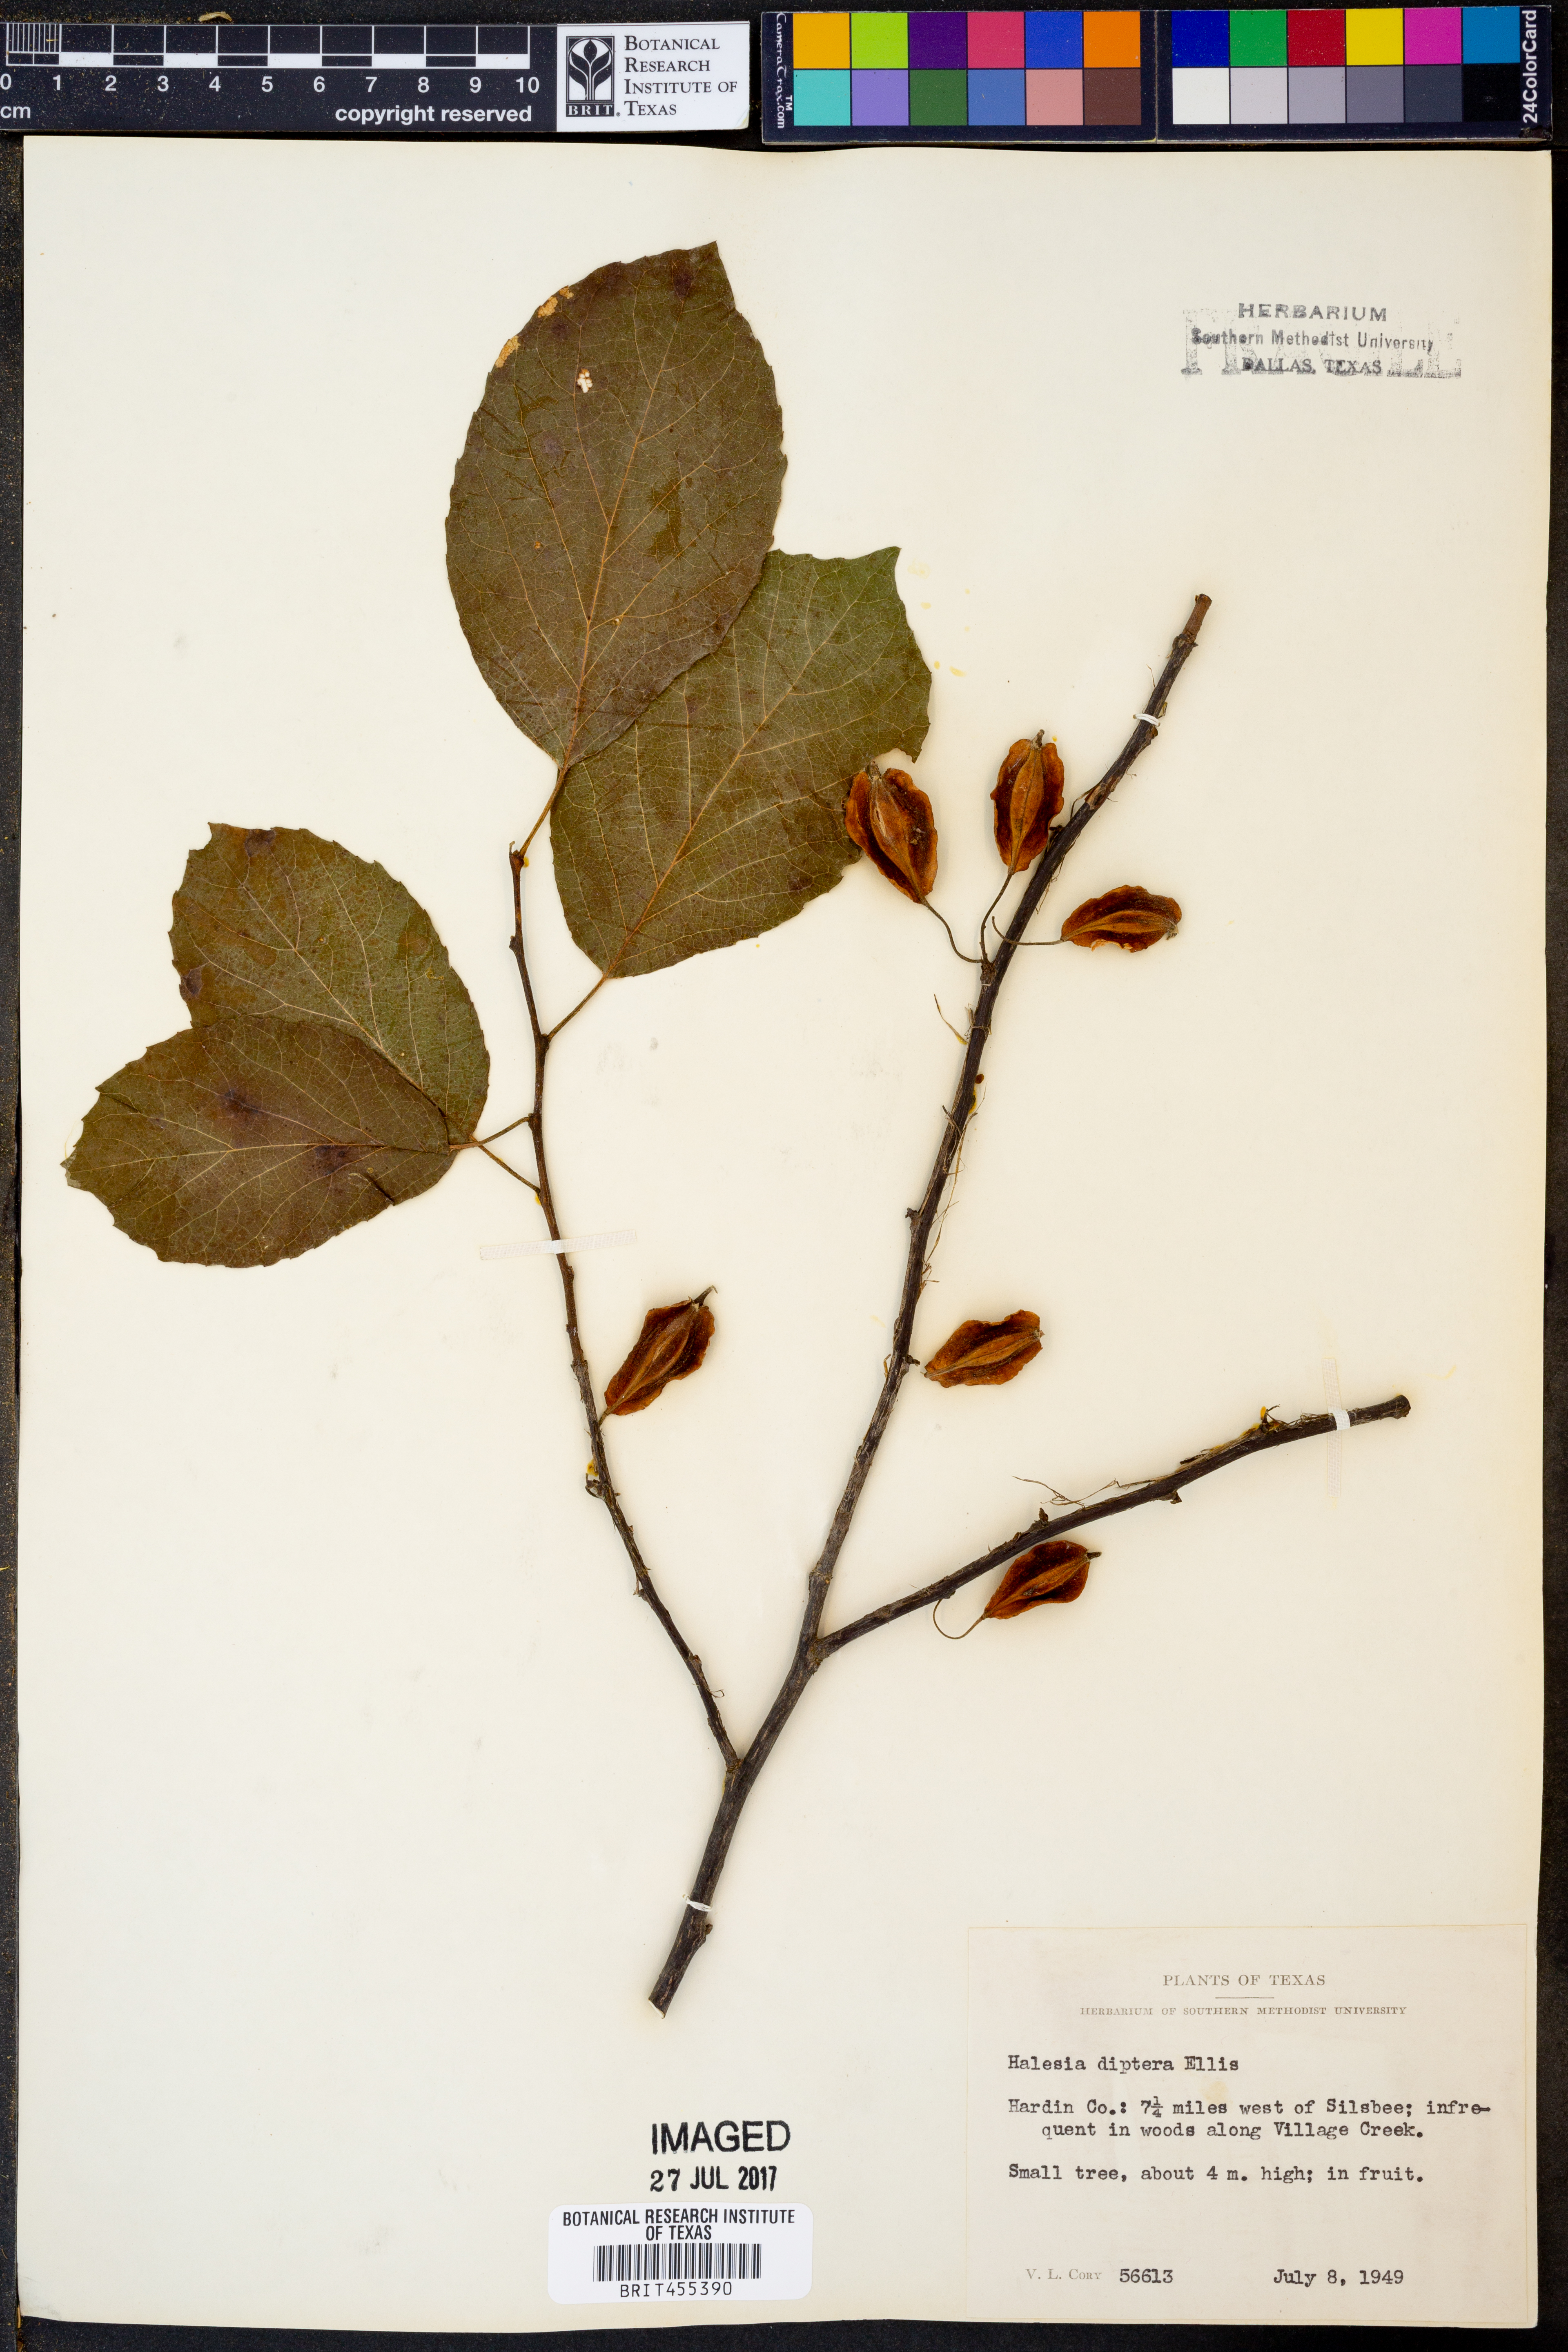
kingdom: Plantae
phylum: Tracheophyta
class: Magnoliopsida
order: Ericales
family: Styracaceae
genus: Halesia
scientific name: Halesia diptera
